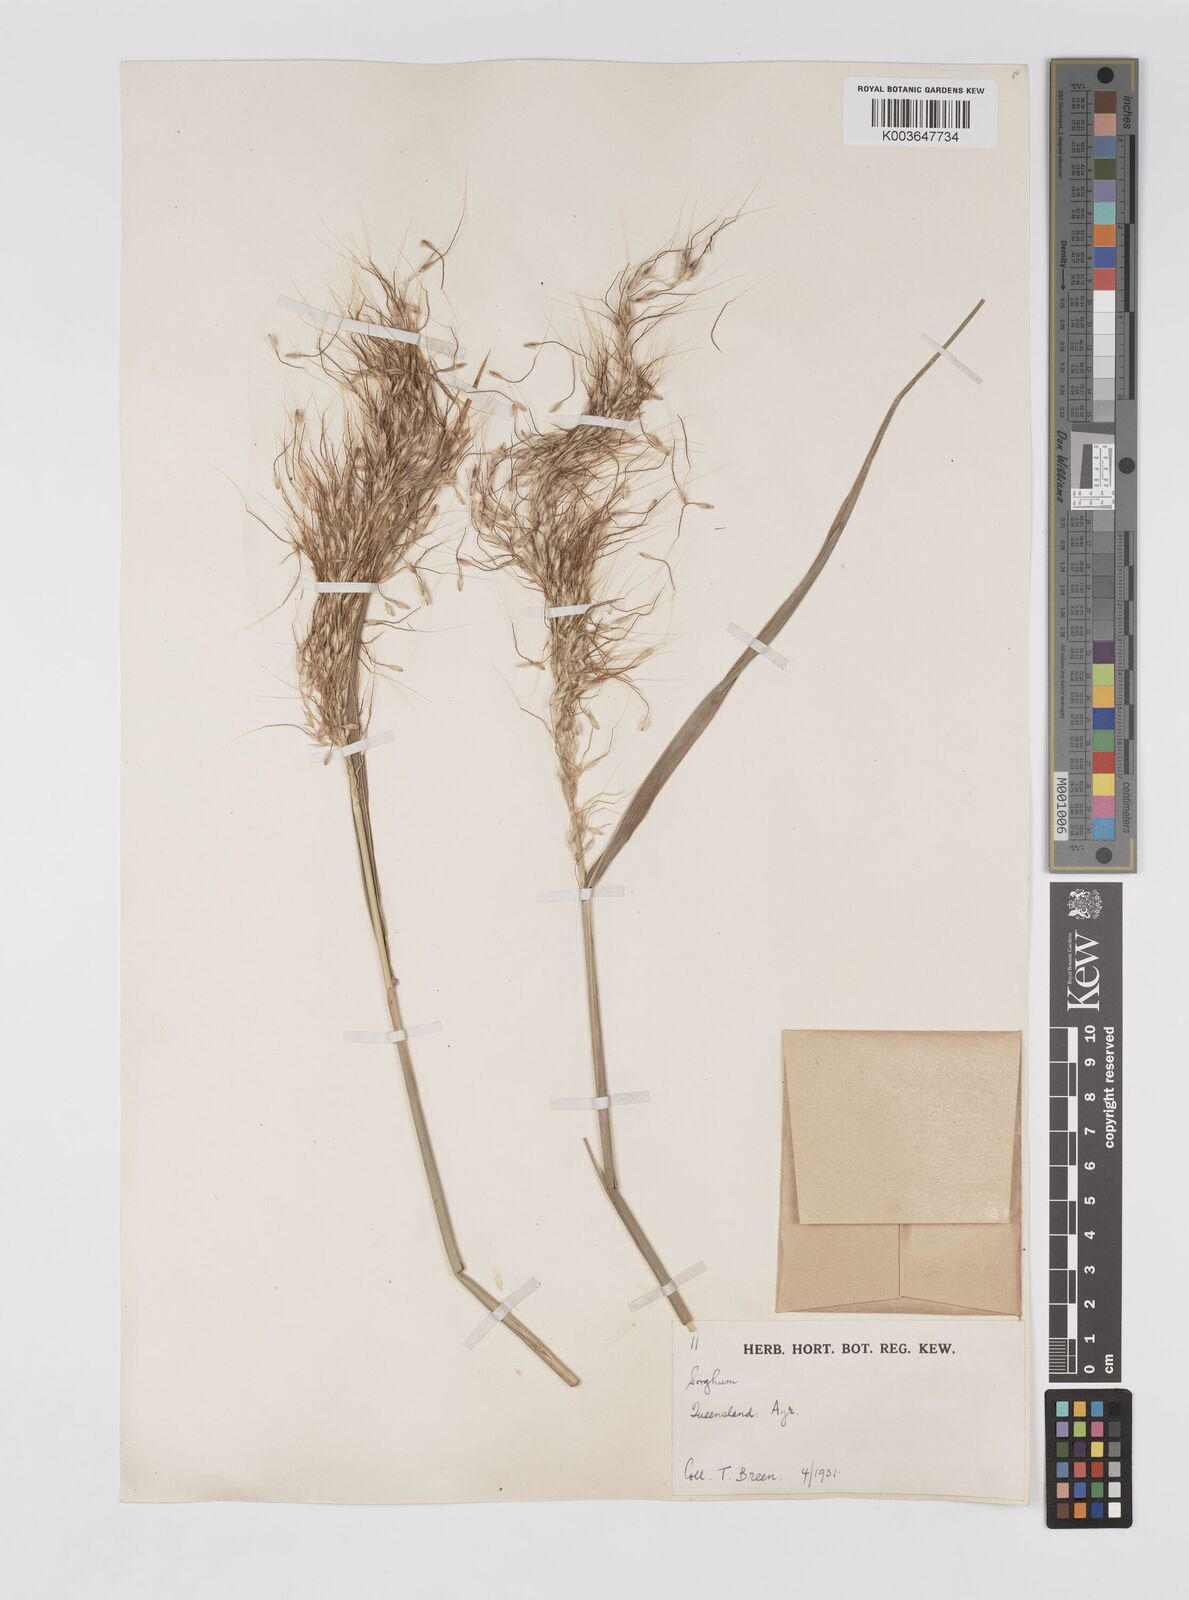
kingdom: Plantae
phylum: Tracheophyta
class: Liliopsida
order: Poales
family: Poaceae
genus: Sorghum
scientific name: Sorghum laxiflorum
